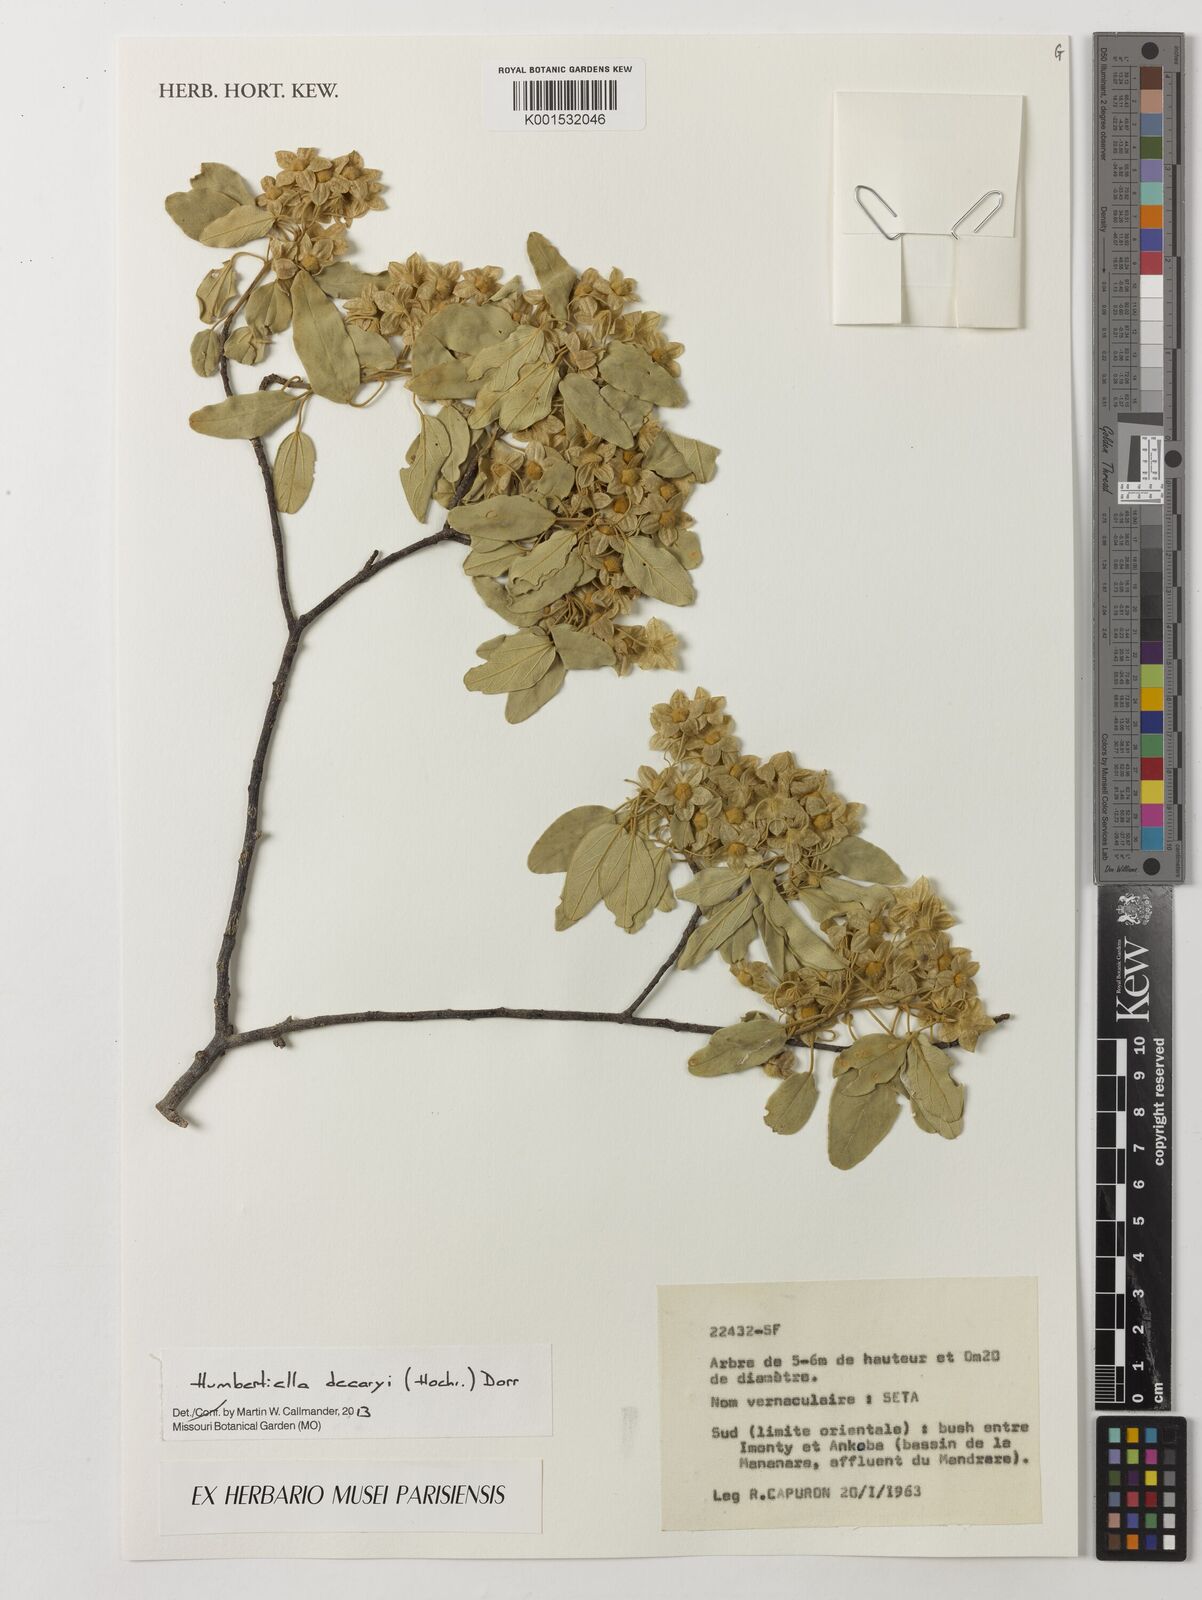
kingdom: Plantae
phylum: Tracheophyta
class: Magnoliopsida
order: Malvales
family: Malvaceae
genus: Humbertiella
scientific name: Humbertiella decaryi
